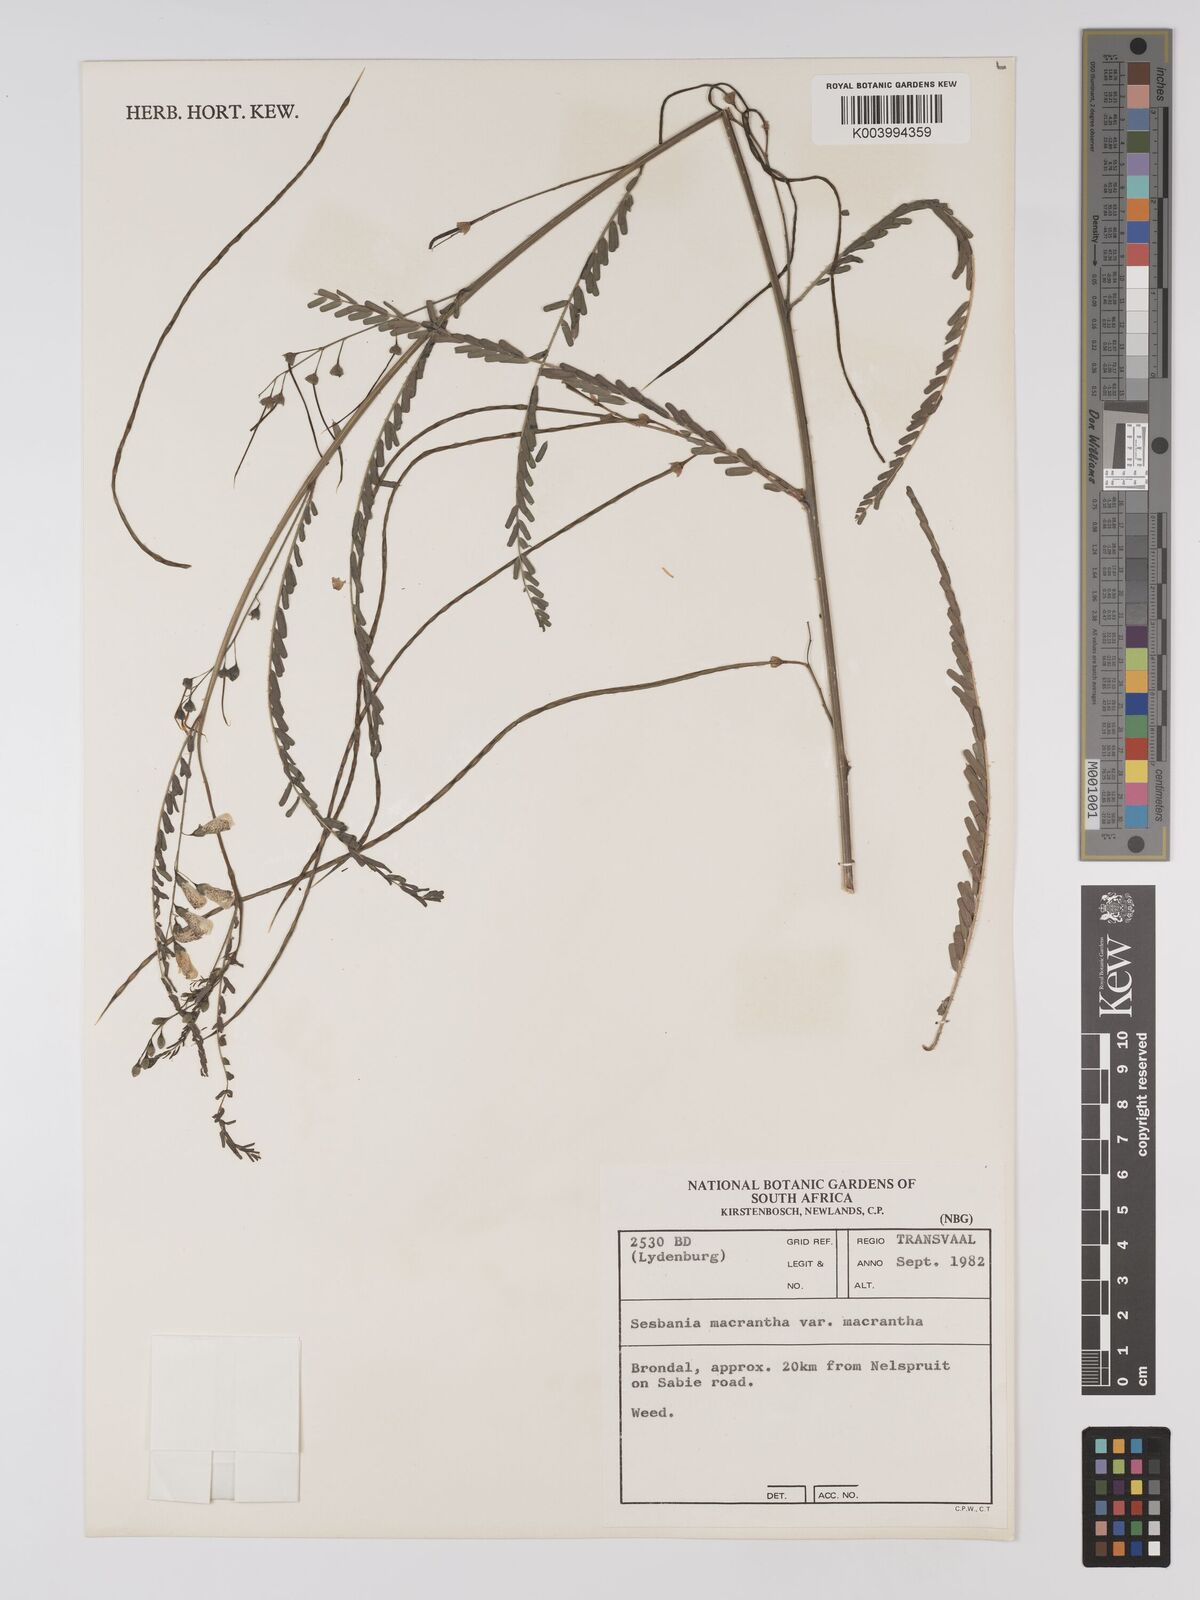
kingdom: Plantae
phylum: Tracheophyta
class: Magnoliopsida
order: Fabales
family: Fabaceae
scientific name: Fabaceae
